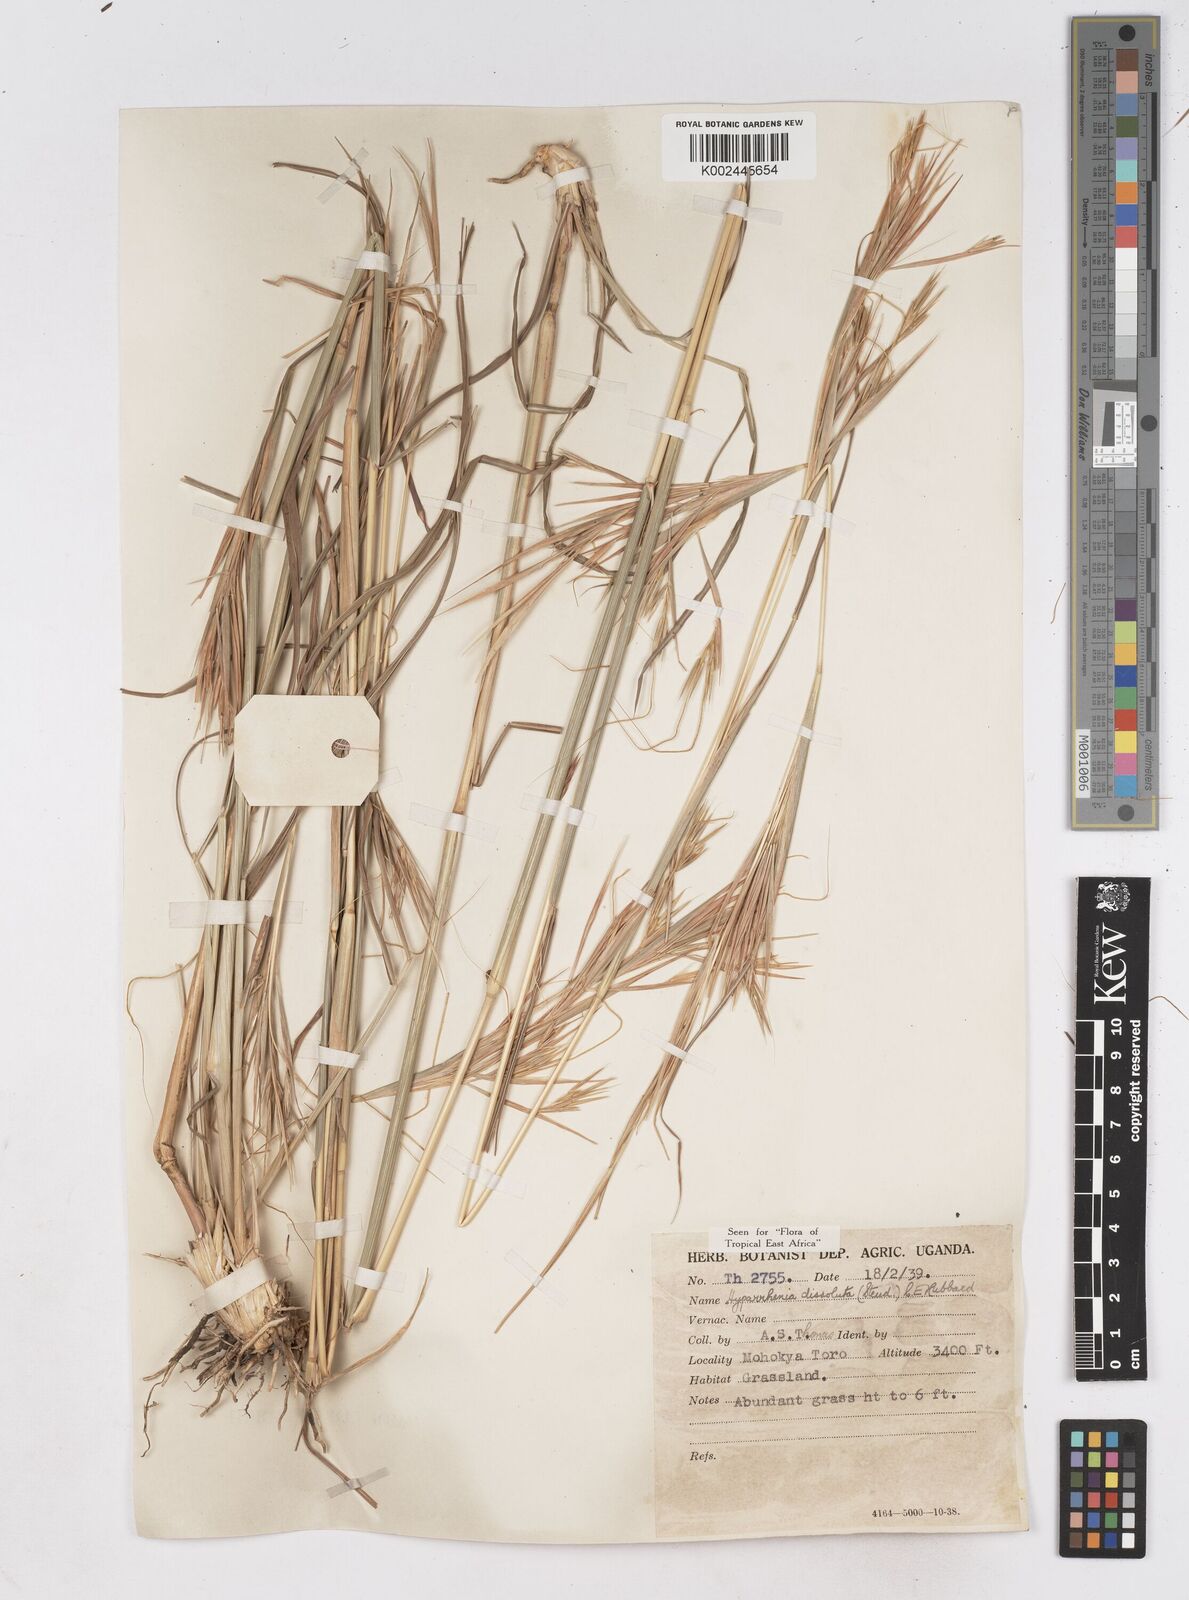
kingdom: Plantae
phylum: Tracheophyta
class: Liliopsida
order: Poales
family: Poaceae
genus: Hyperthelia
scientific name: Hyperthelia dissoluta
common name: Yellow thatching grass
